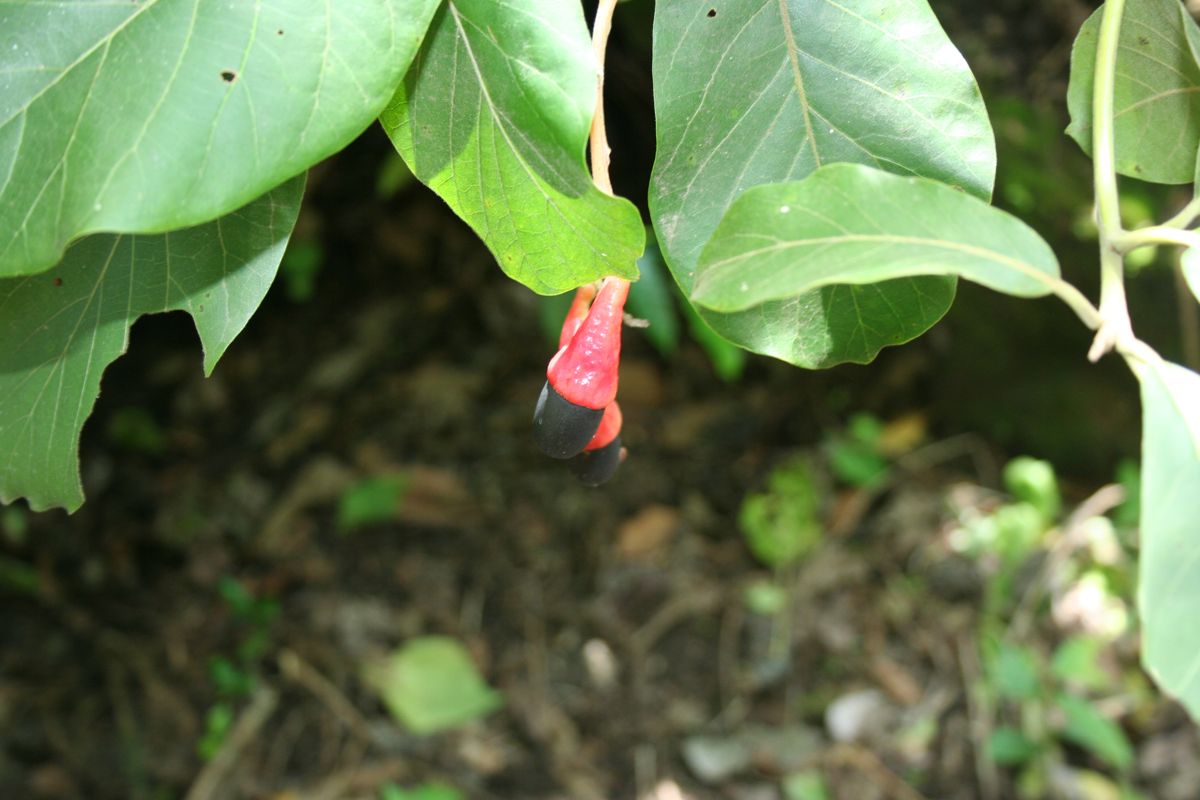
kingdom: Plantae
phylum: Tracheophyta
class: Magnoliopsida
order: Laurales
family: Lauraceae
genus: Ocotea
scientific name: Ocotea sinuata
